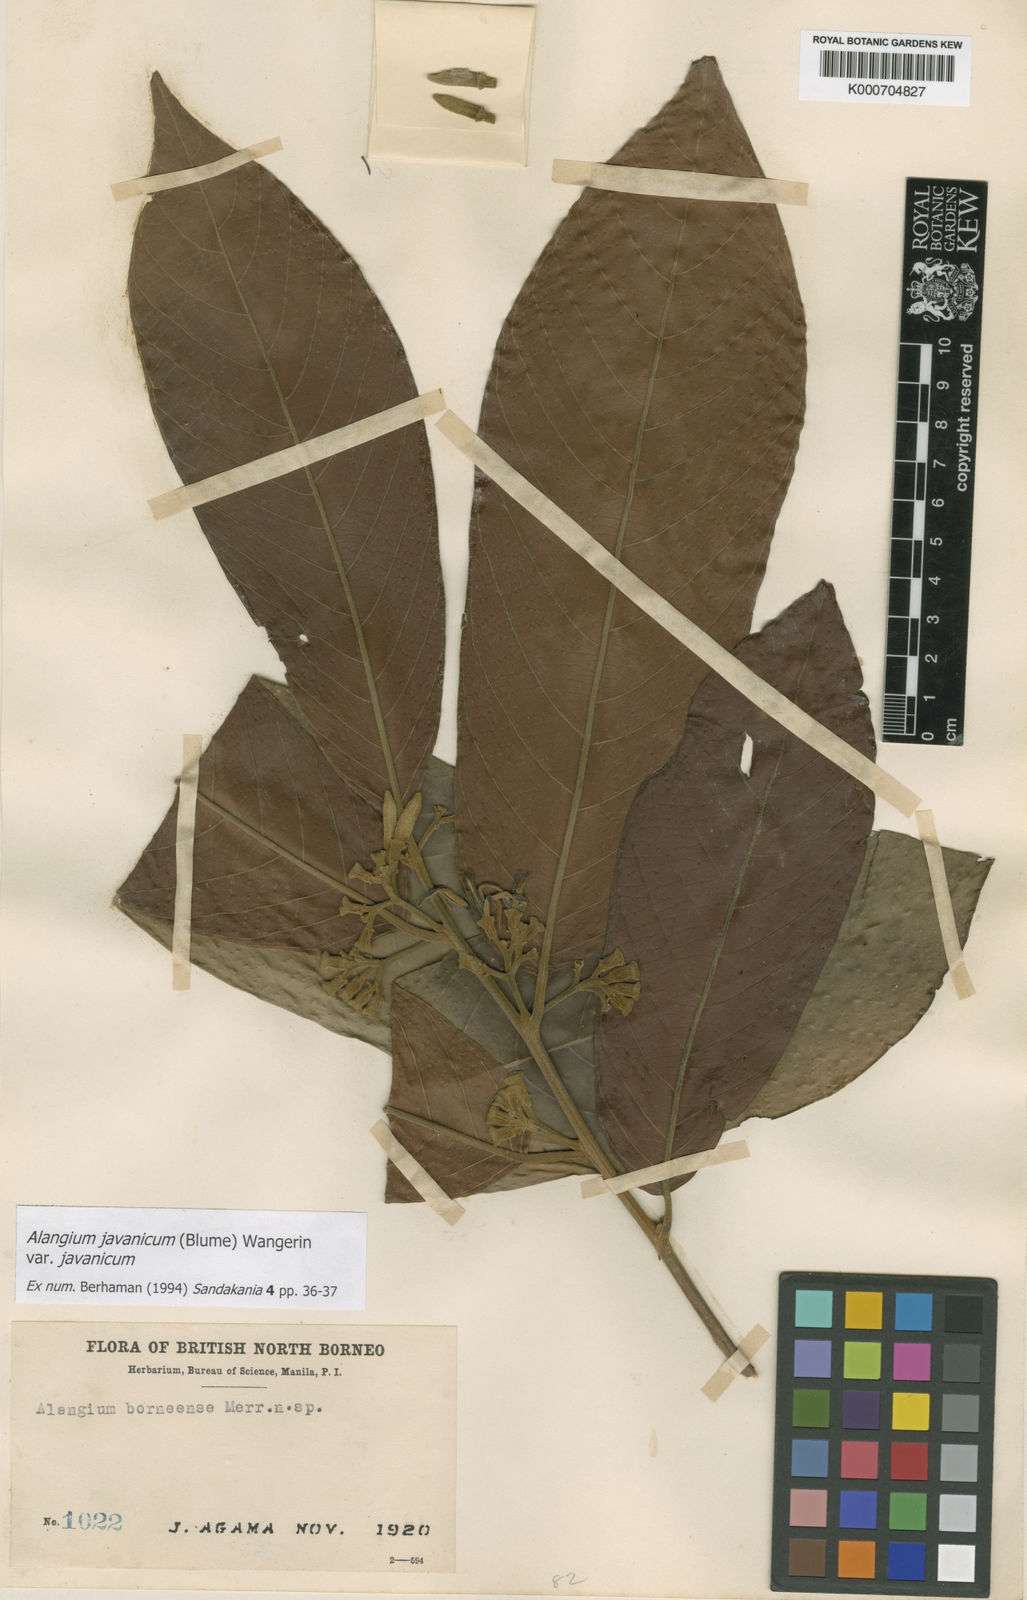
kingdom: Plantae
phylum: Tracheophyta
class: Magnoliopsida
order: Cornales
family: Cornaceae
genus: Alangium
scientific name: Alangium borneense
